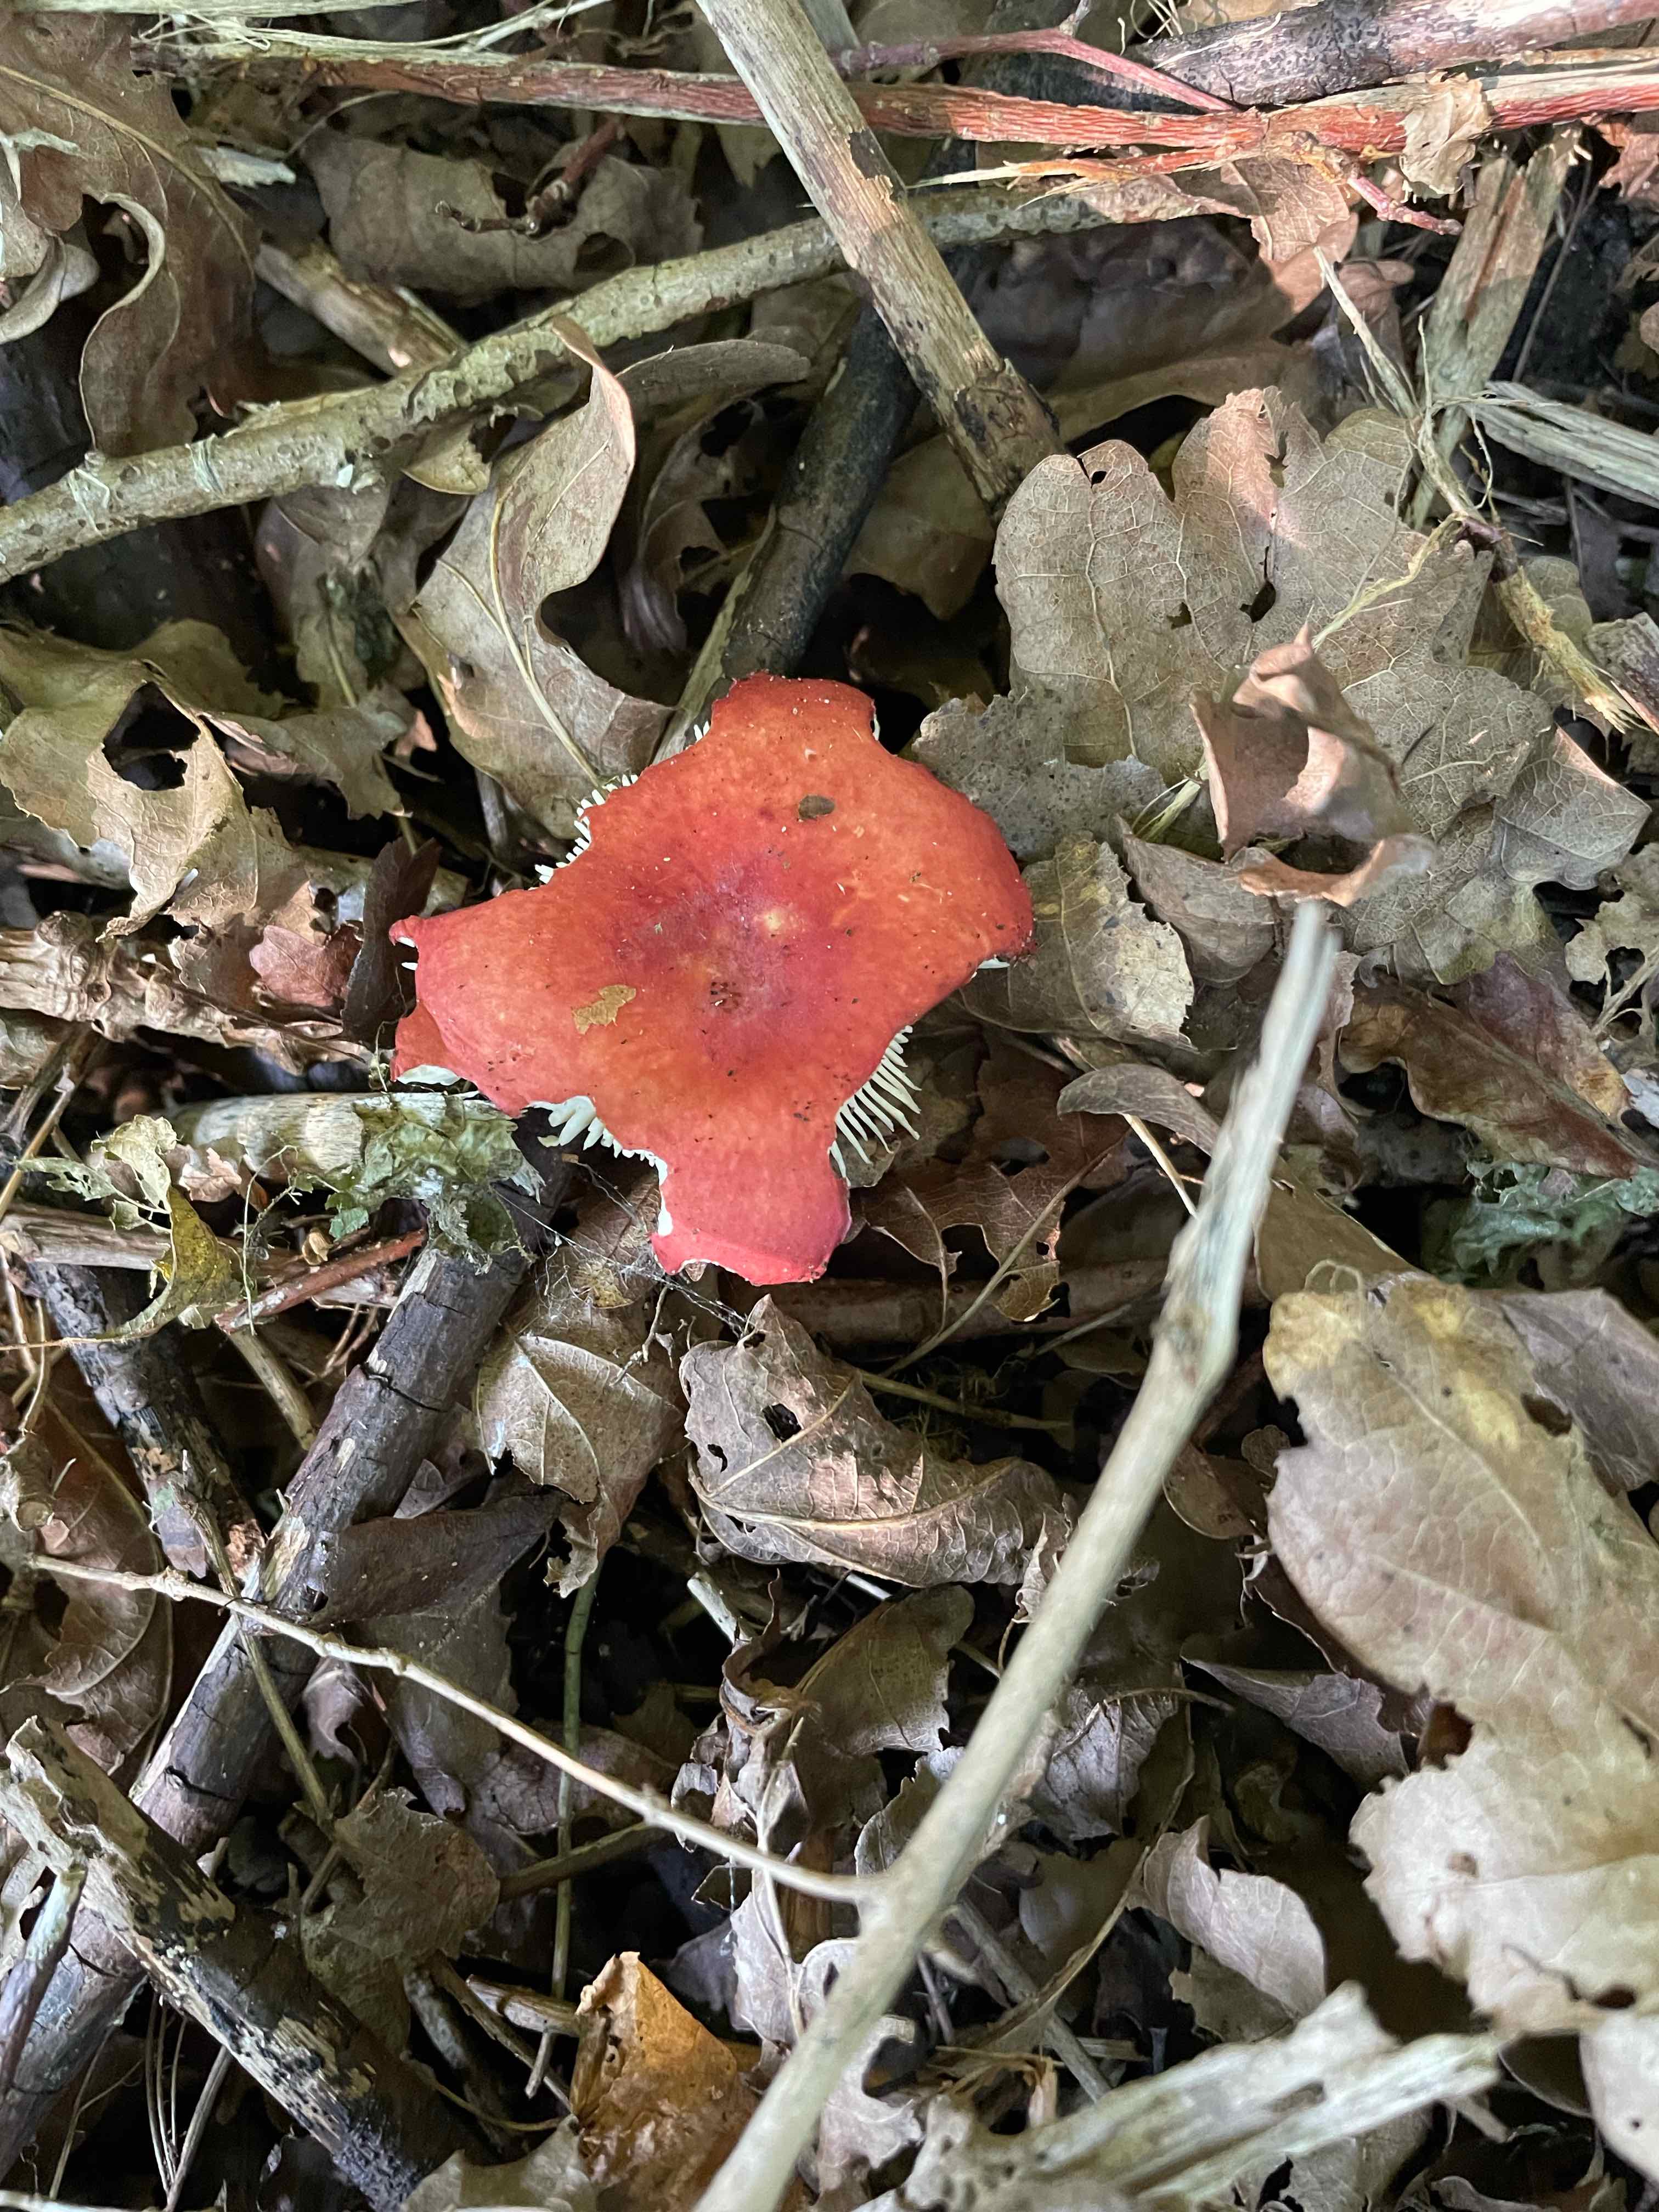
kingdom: Fungi
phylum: Basidiomycota
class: Agaricomycetes
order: Russulales
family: Russulaceae
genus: Russula
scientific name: Russula
